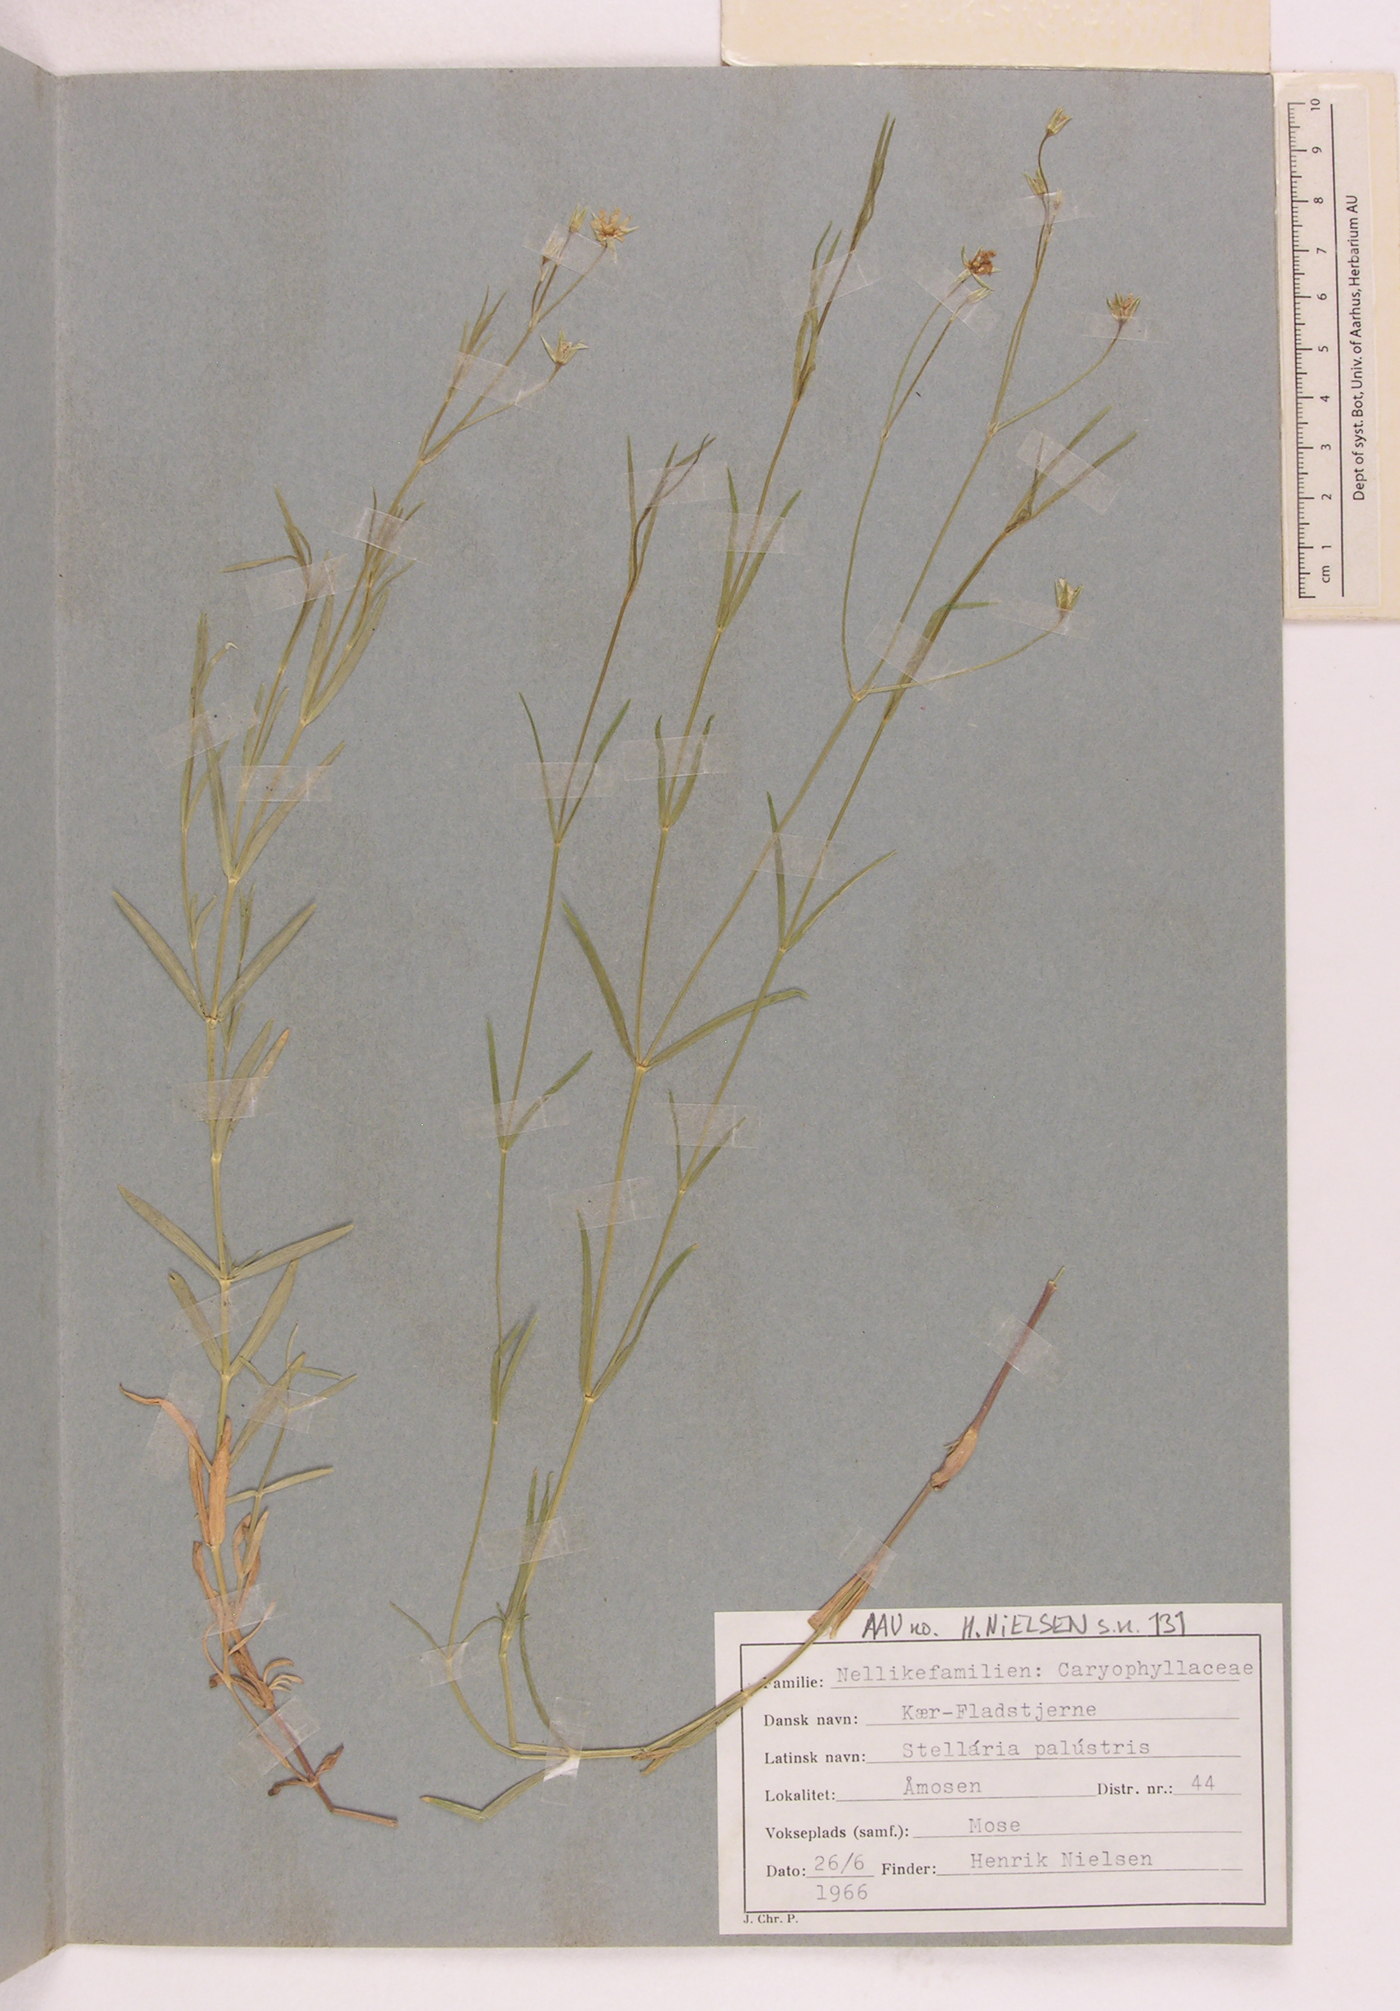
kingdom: Plantae
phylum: Tracheophyta
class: Magnoliopsida
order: Caryophyllales
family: Caryophyllaceae
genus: Stellaria
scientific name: Stellaria palustris
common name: Marsh stitchwort
